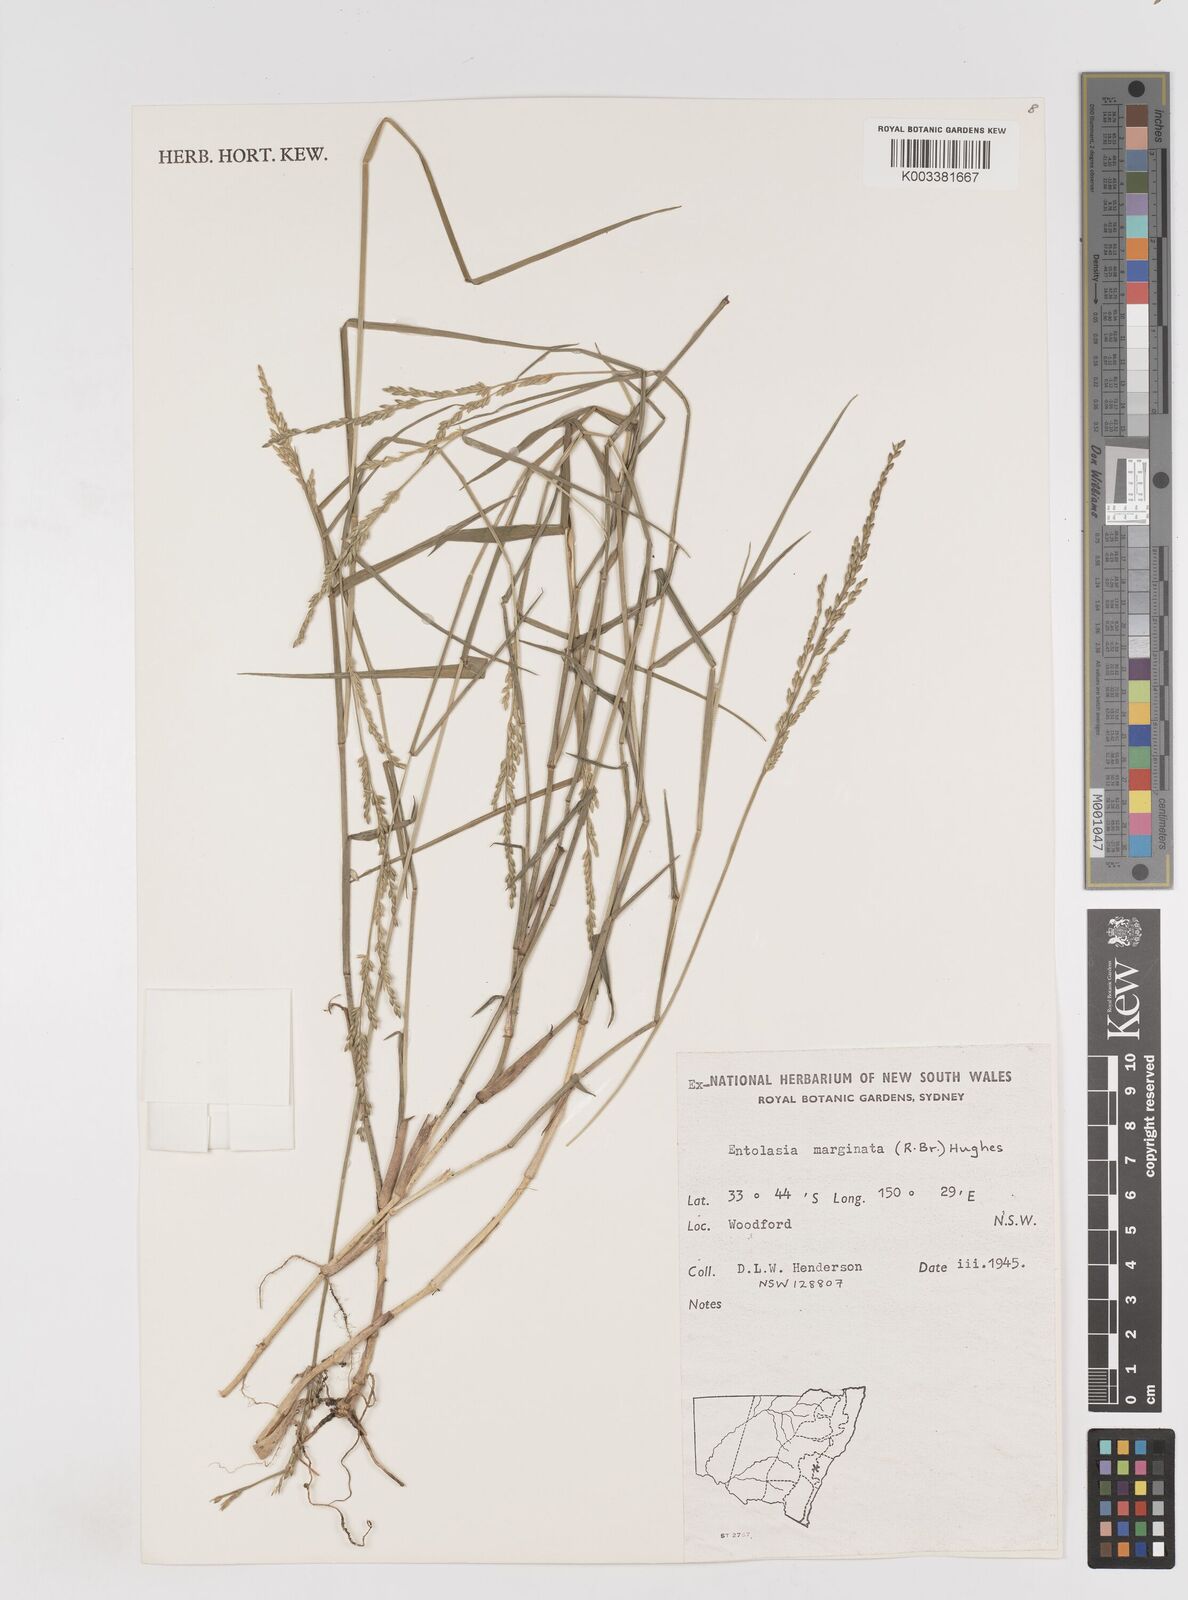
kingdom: Plantae
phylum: Tracheophyta
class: Liliopsida
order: Poales
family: Poaceae
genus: Entolasia
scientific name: Entolasia marginata
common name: Australian panicgrass
